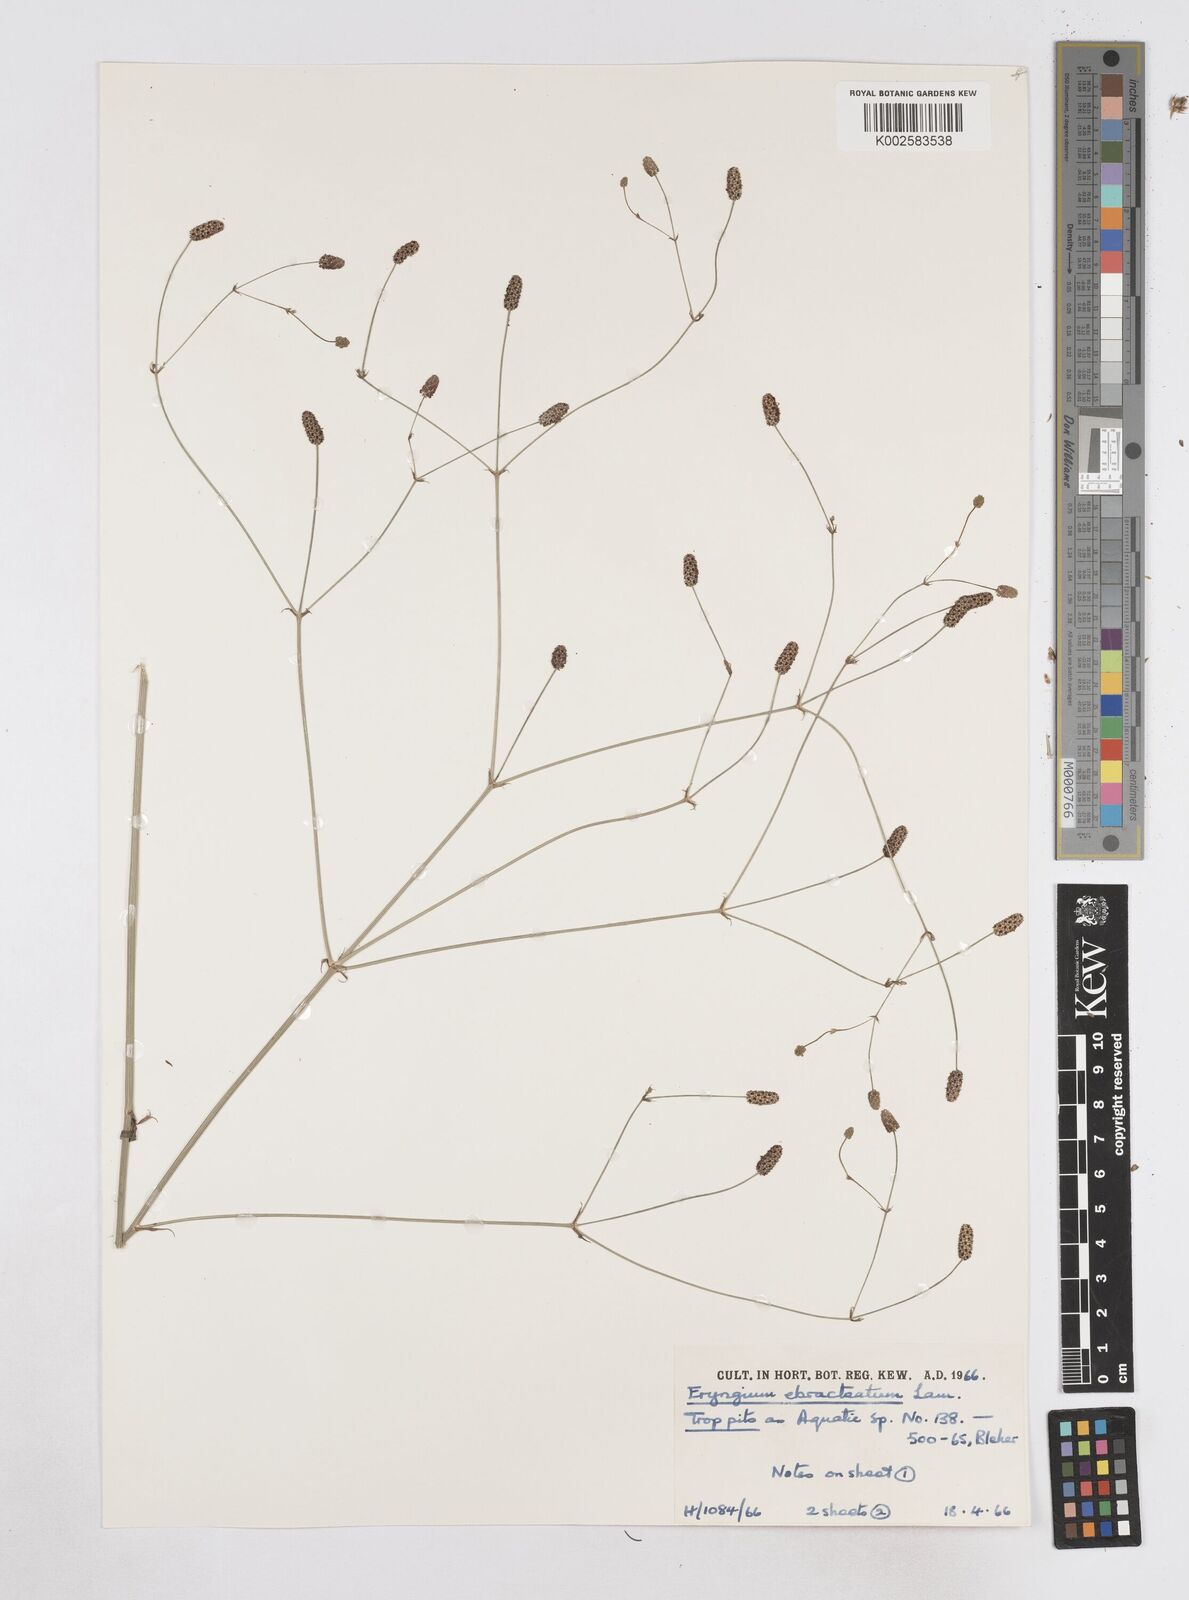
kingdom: Plantae
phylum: Tracheophyta
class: Magnoliopsida
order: Apiales
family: Apiaceae
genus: Eryngium
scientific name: Eryngium ebracteatum
